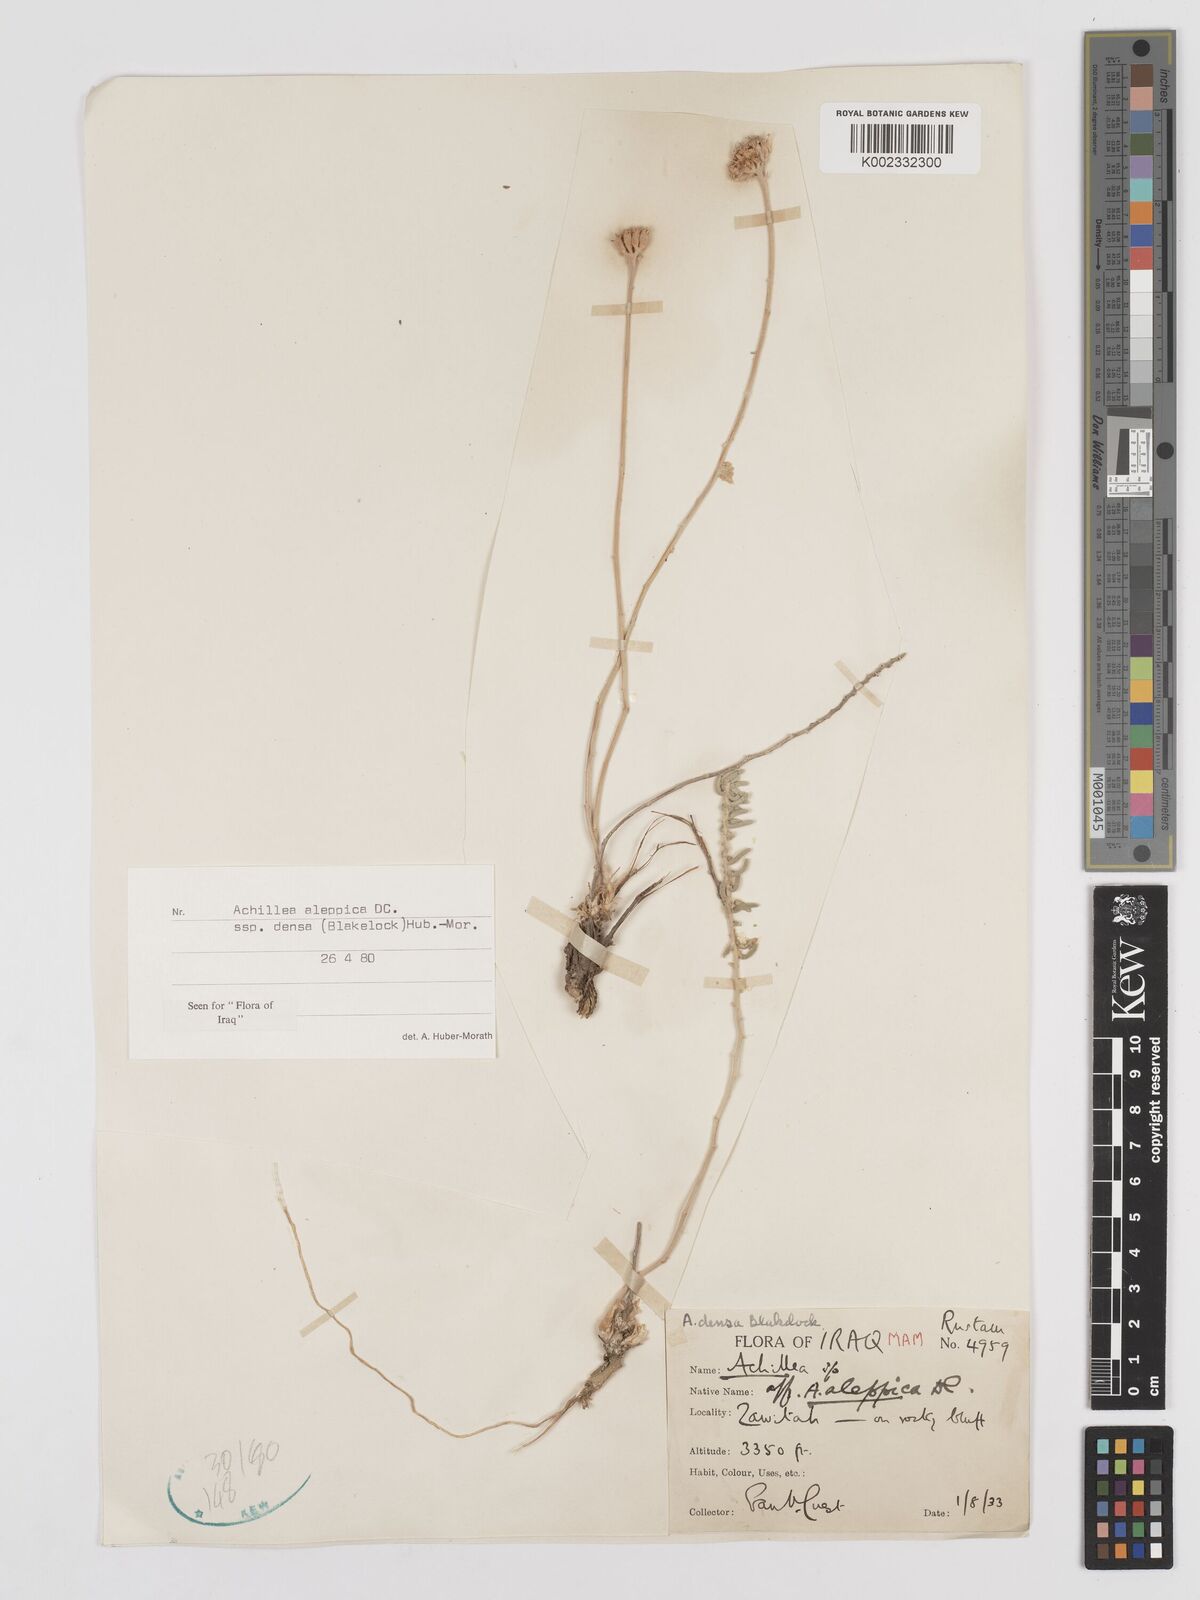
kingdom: Plantae
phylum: Tracheophyta
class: Magnoliopsida
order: Asterales
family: Asteraceae
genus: Achillea
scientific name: Achillea aleppica
